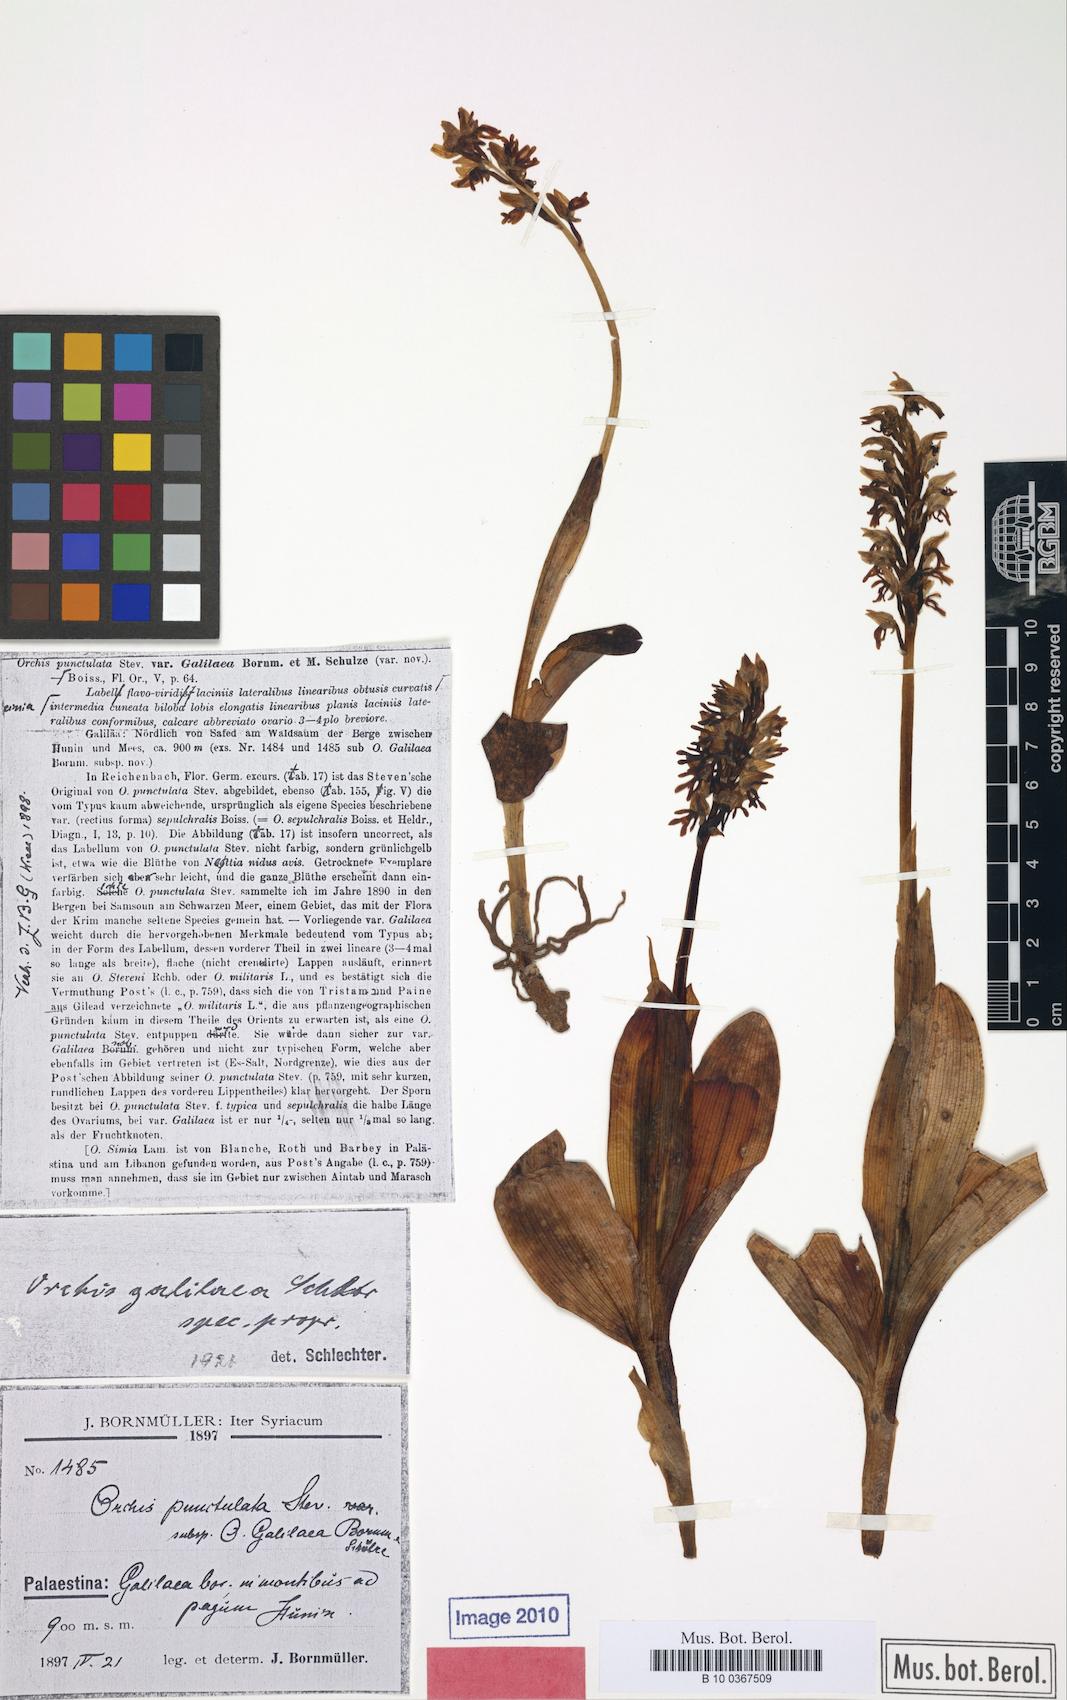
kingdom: Plantae
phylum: Tracheophyta
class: Liliopsida
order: Asparagales
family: Orchidaceae
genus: Orchis
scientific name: Orchis galilaea
